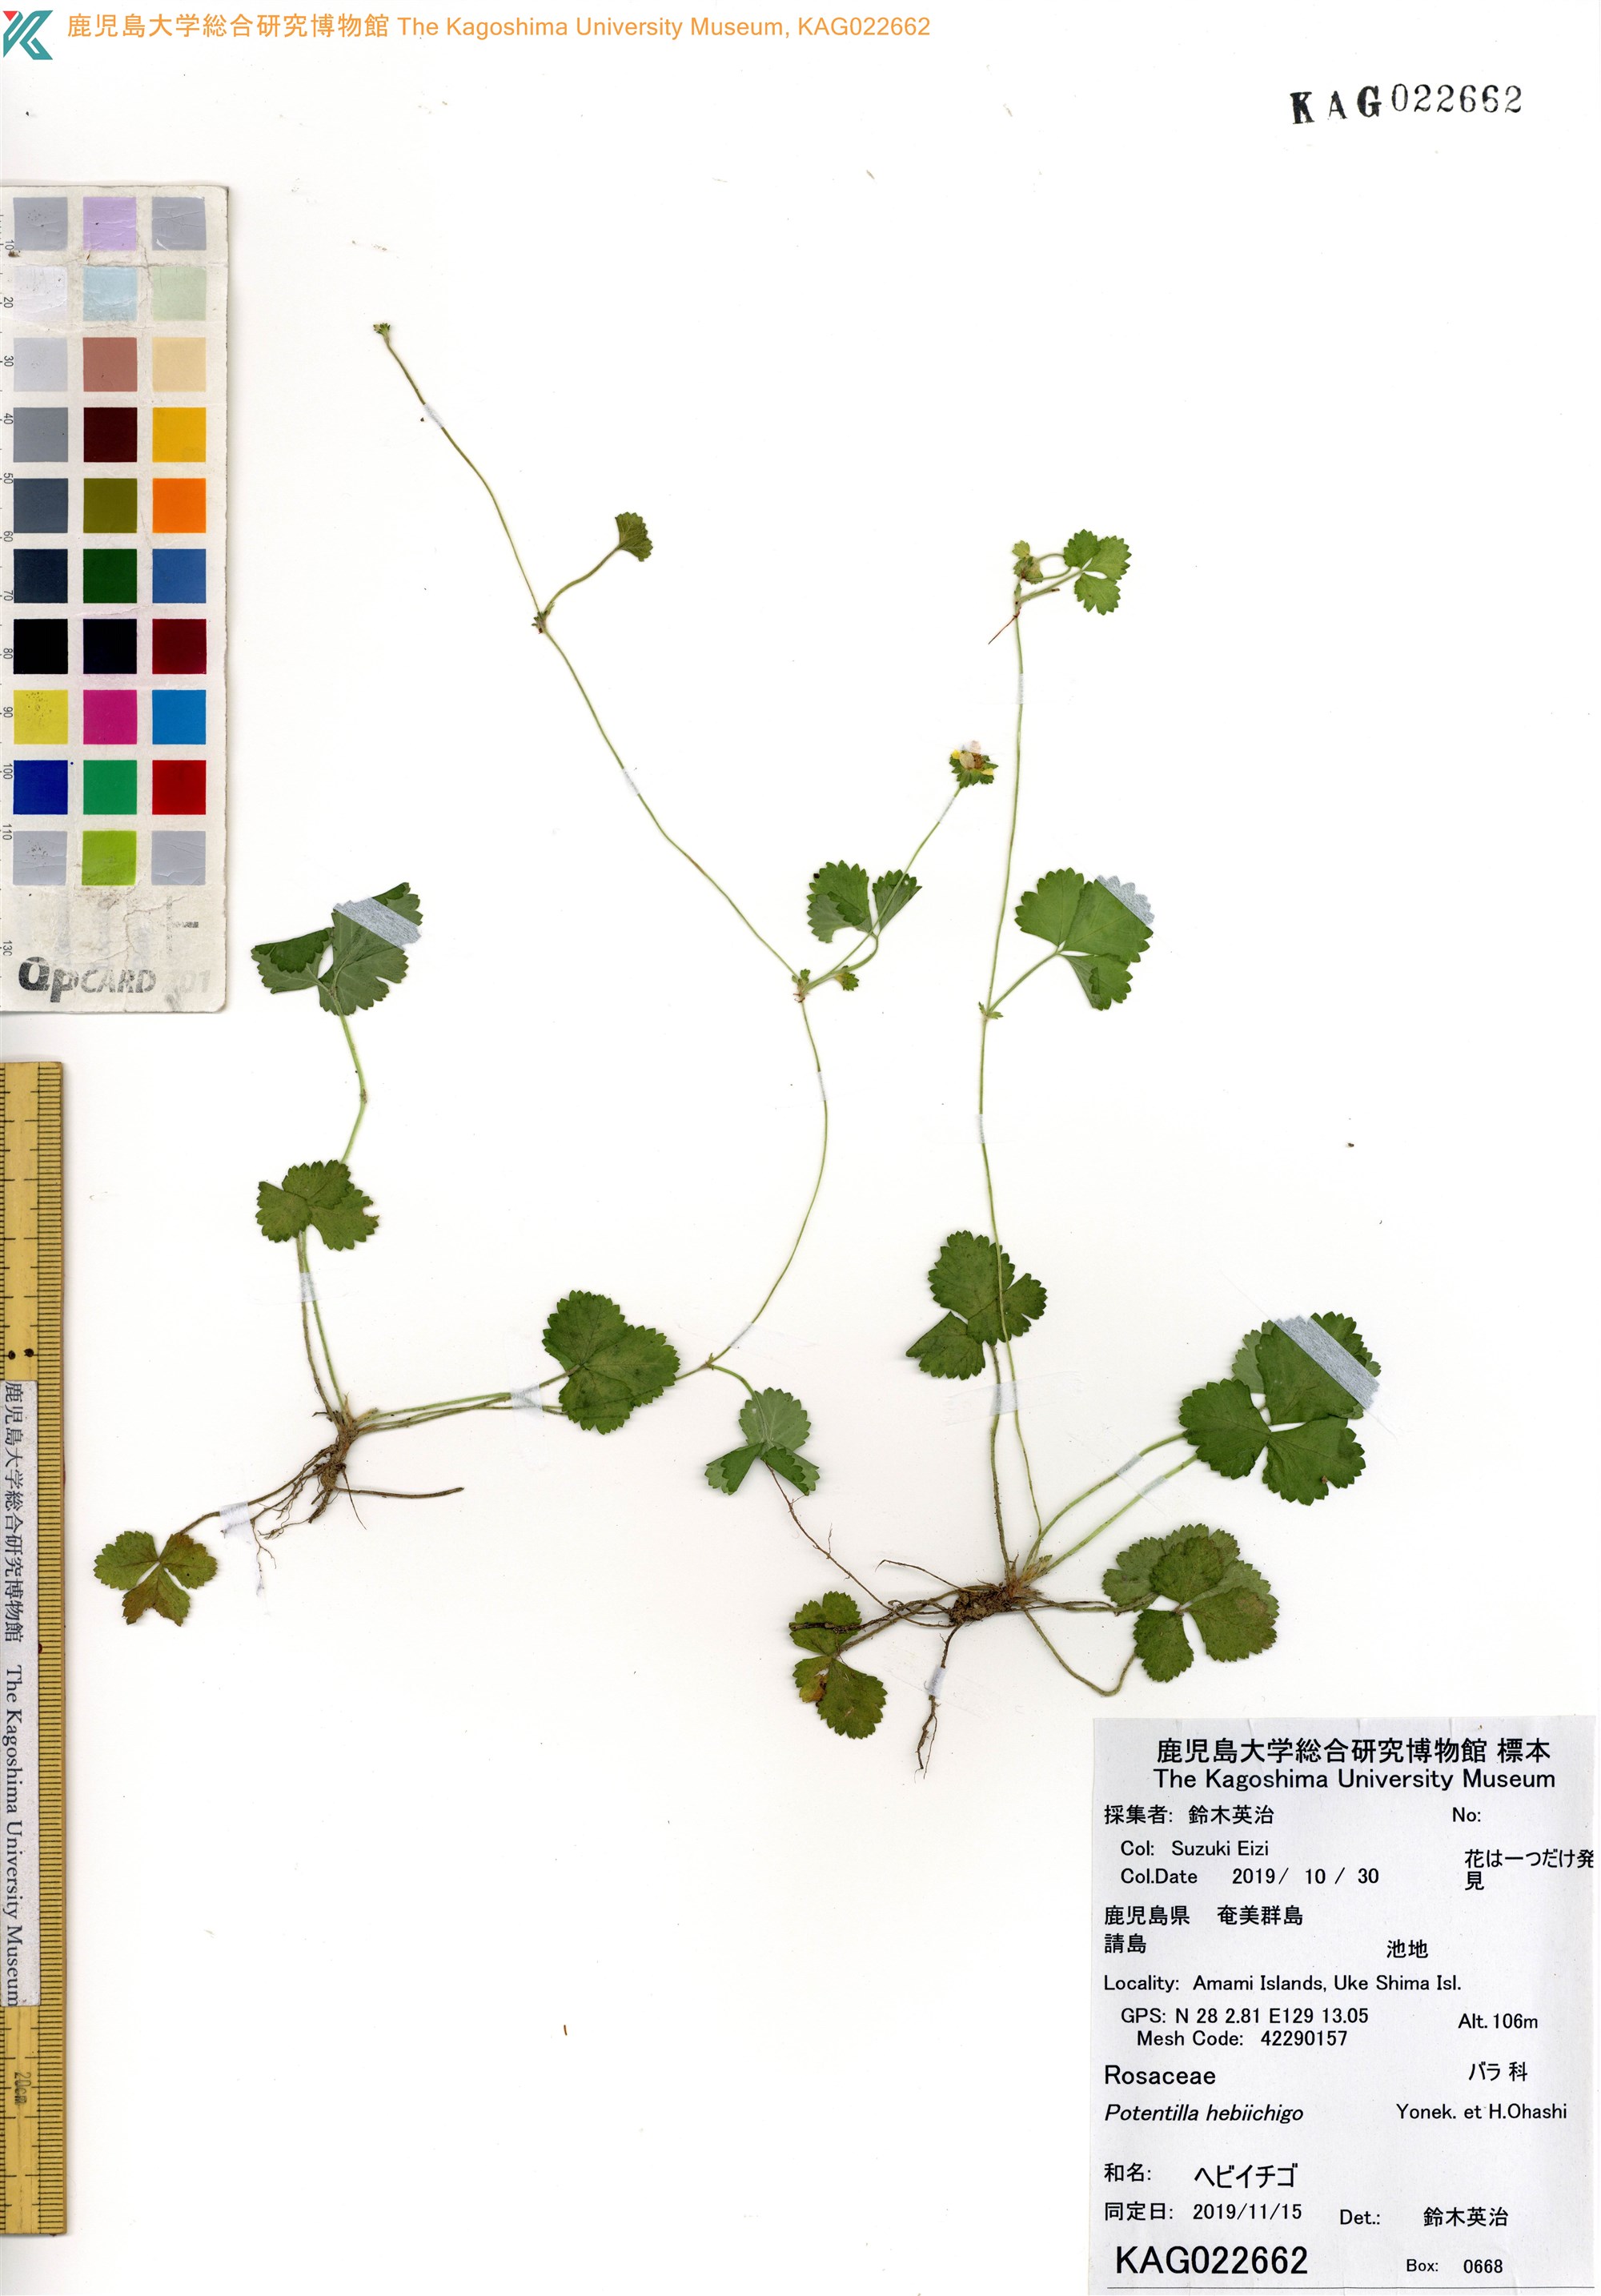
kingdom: Plantae
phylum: Tracheophyta
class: Magnoliopsida
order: Rosales
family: Rosaceae
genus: Potentilla
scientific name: Potentilla wallichiana
